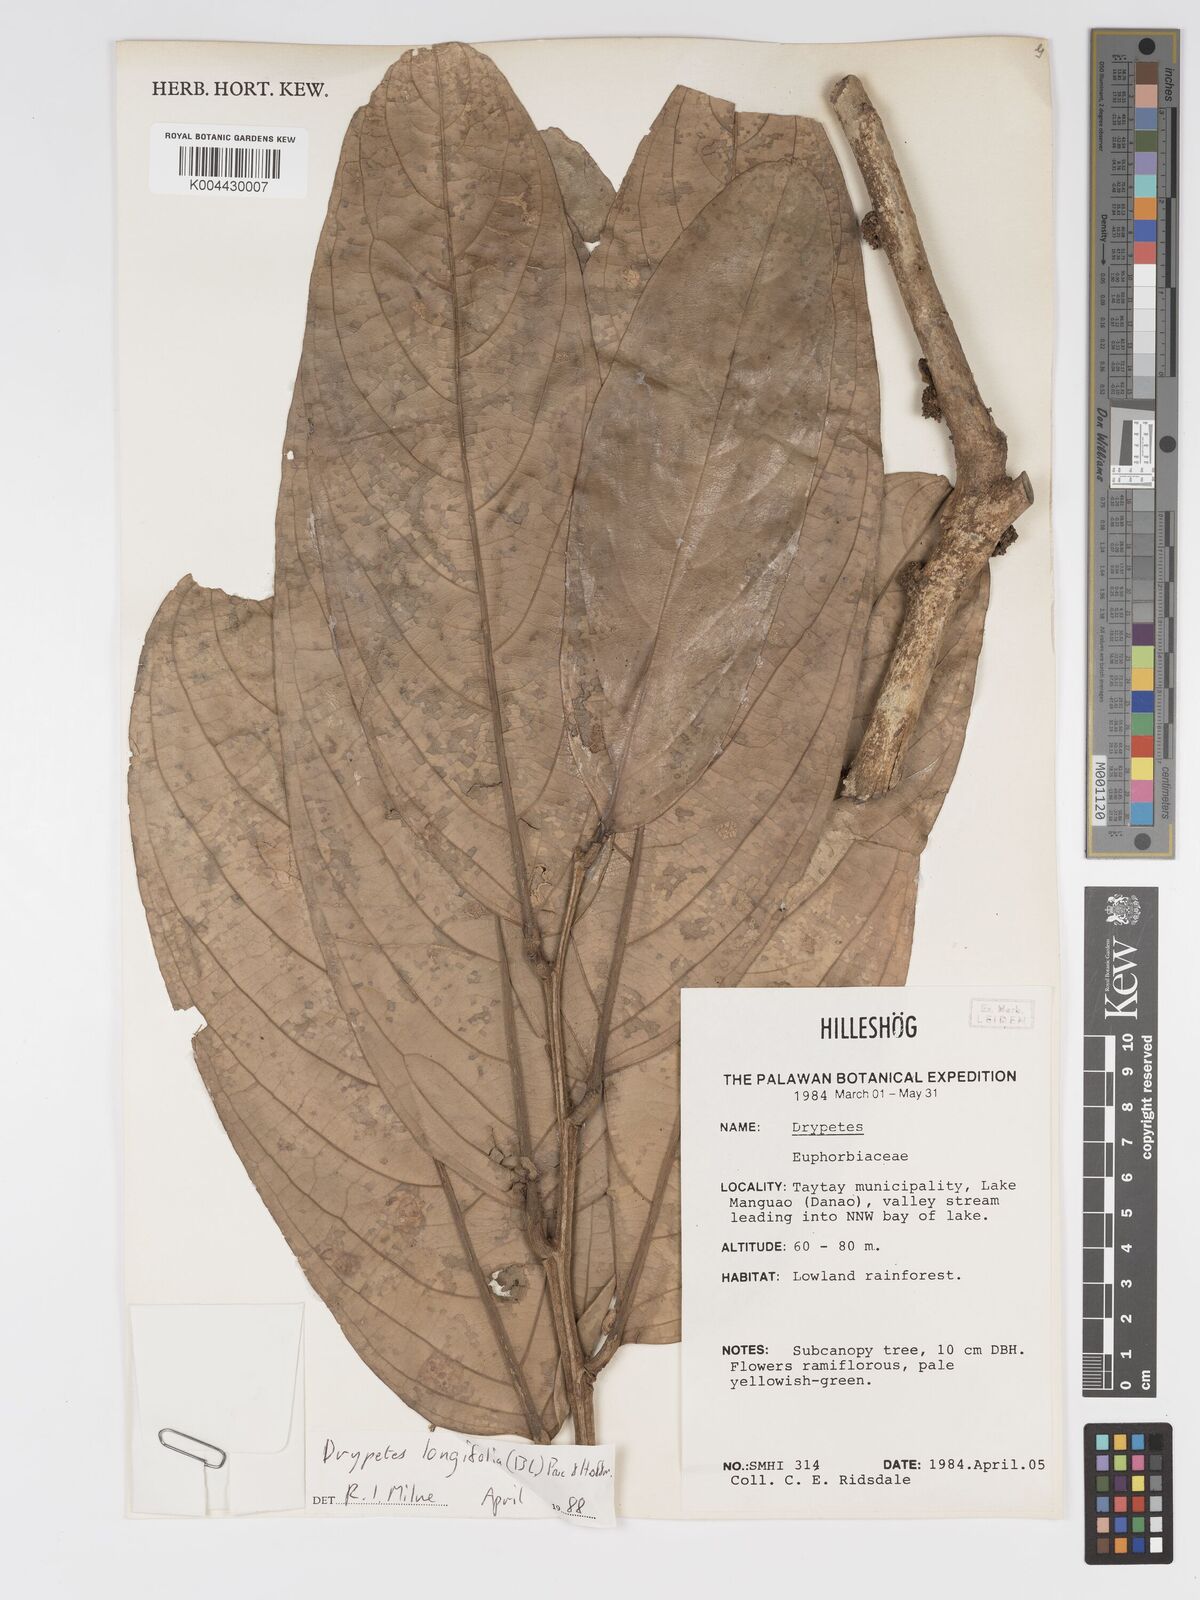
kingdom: Plantae
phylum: Tracheophyta
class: Magnoliopsida
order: Malpighiales
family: Putranjivaceae
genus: Drypetes
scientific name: Drypetes longifolia
